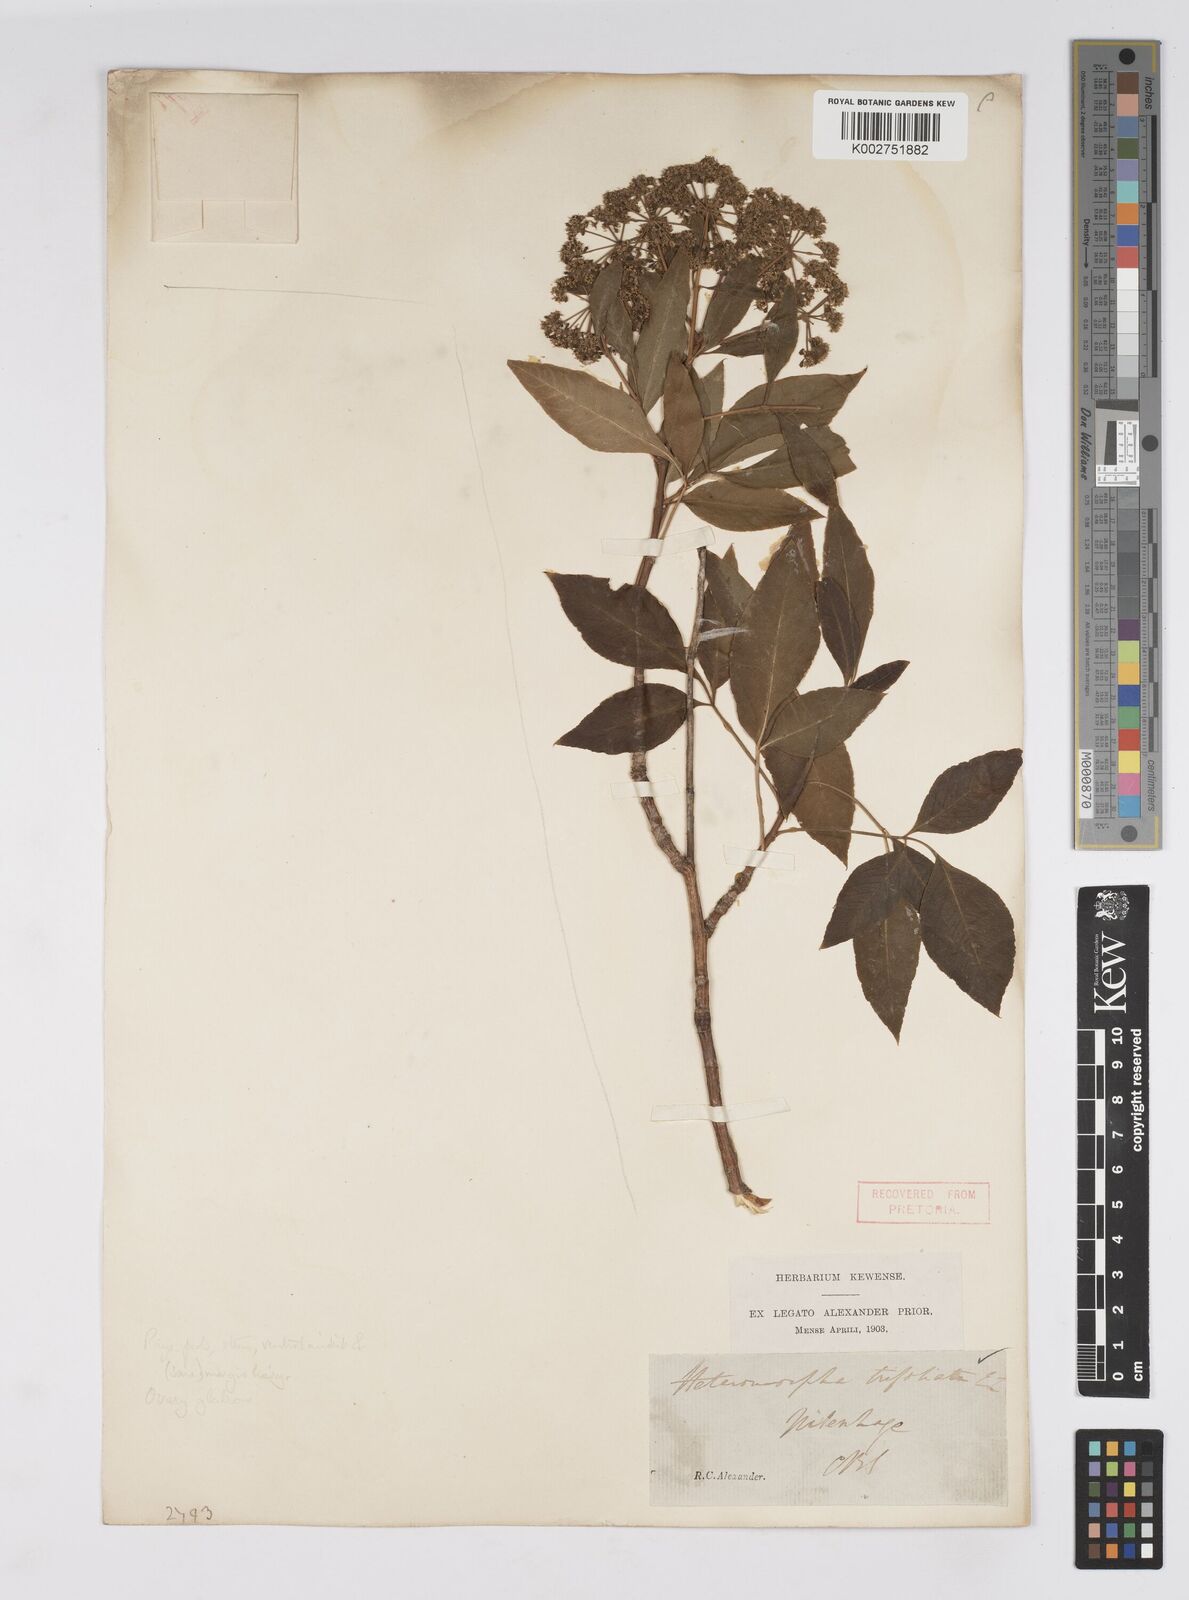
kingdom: Plantae
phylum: Tracheophyta
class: Magnoliopsida
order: Apiales
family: Apiaceae
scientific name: Apiaceae
